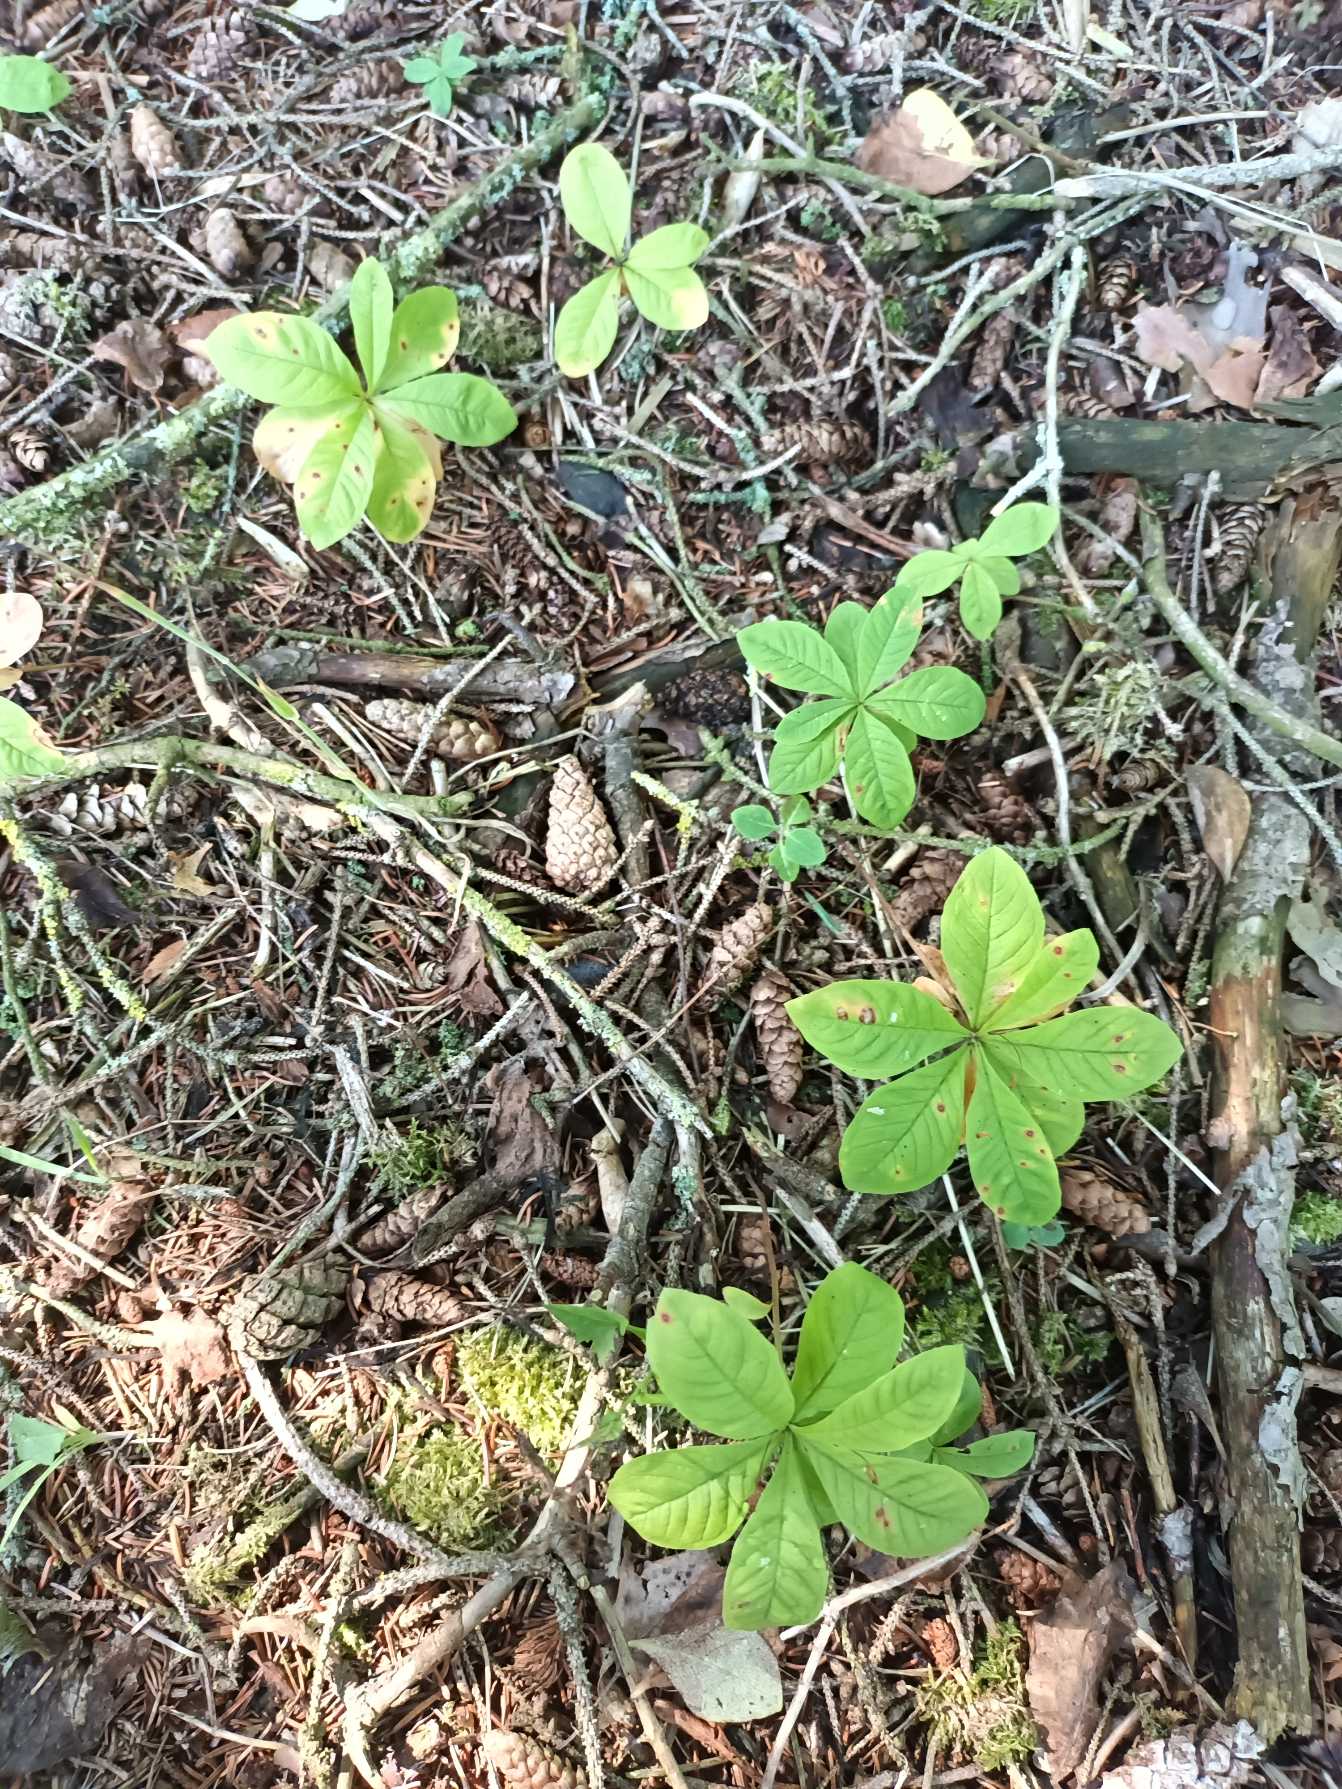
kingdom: Plantae
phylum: Tracheophyta
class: Magnoliopsida
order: Ericales
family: Primulaceae
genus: Lysimachia
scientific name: Lysimachia europaea
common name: Skovstjerne
